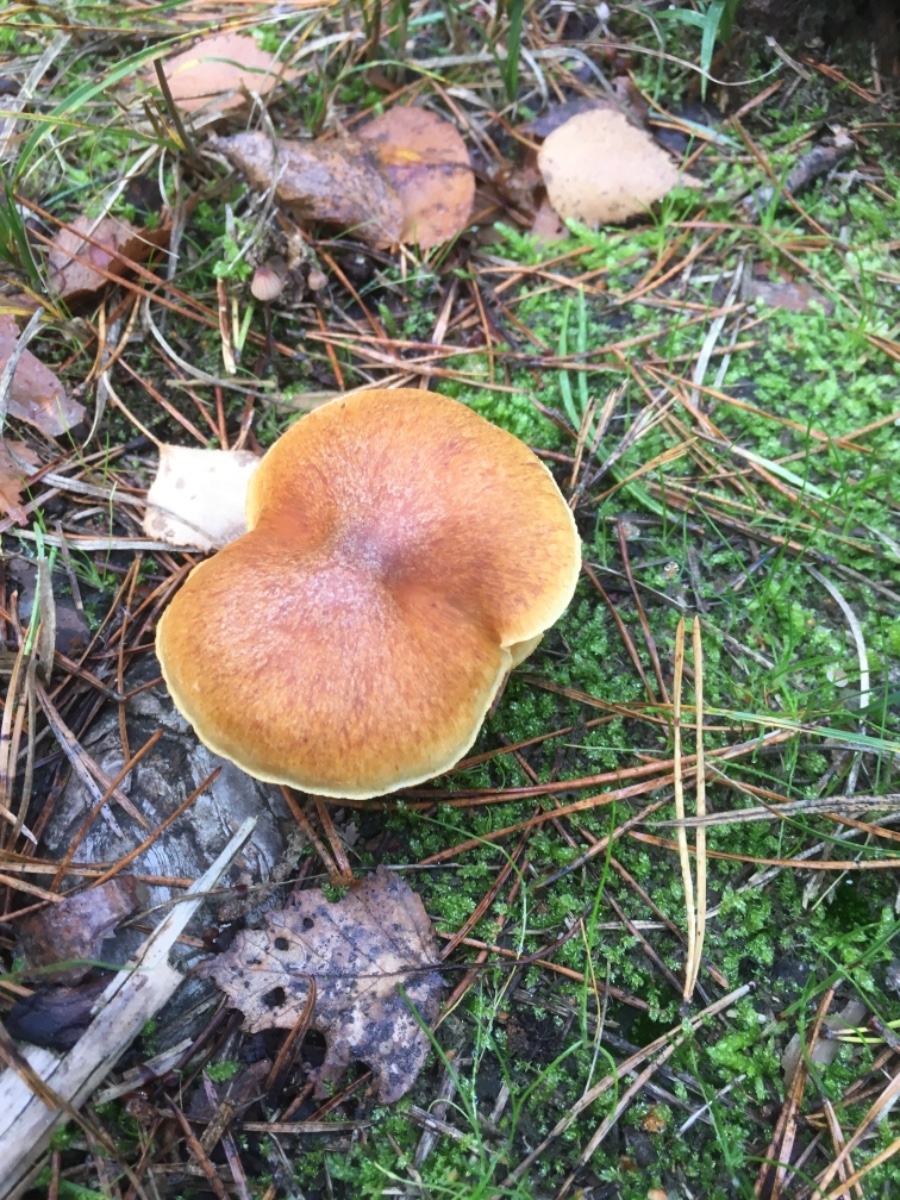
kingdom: Fungi
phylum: Basidiomycota
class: Agaricomycetes
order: Agaricales
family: Hymenogastraceae
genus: Gymnopilus
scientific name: Gymnopilus penetrans
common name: plettet flammehat
